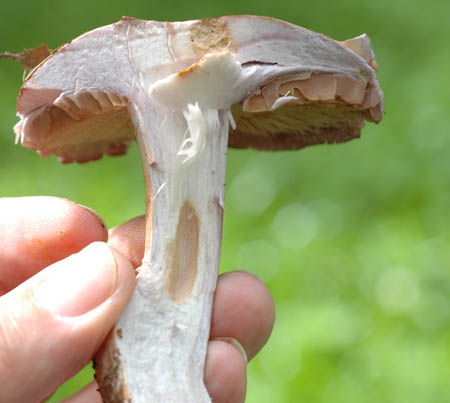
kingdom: Fungi
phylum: Basidiomycota
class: Agaricomycetes
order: Agaricales
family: Cortinariaceae
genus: Cortinarius
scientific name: Cortinarius largus
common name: violetrandet slørhat
